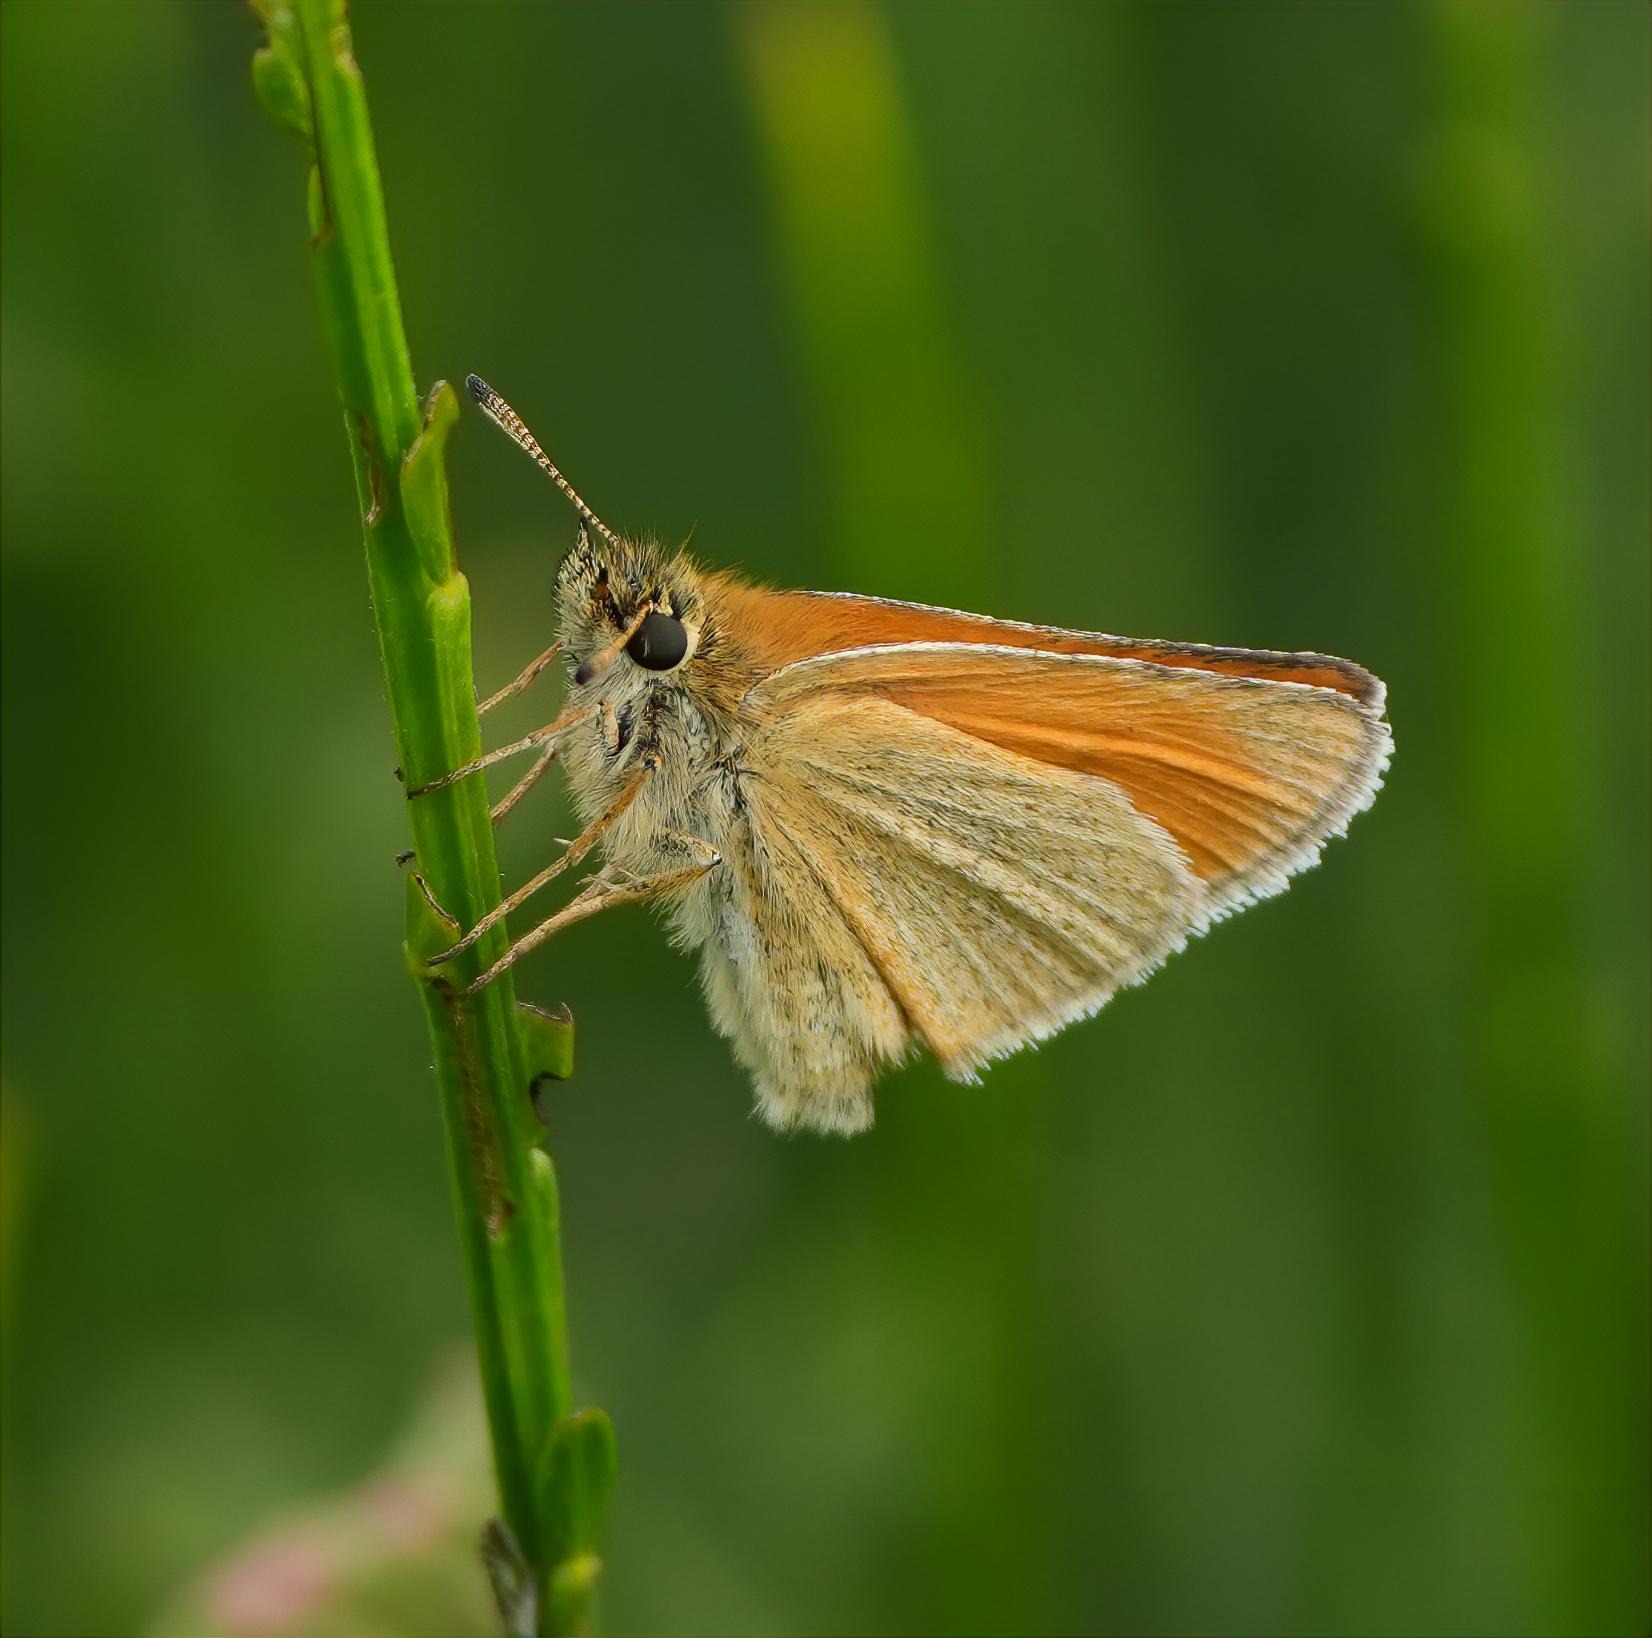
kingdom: Animalia
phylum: Arthropoda
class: Insecta
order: Lepidoptera
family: Hesperiidae
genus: Thymelicus
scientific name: Thymelicus lineola
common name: Stregbredpande
